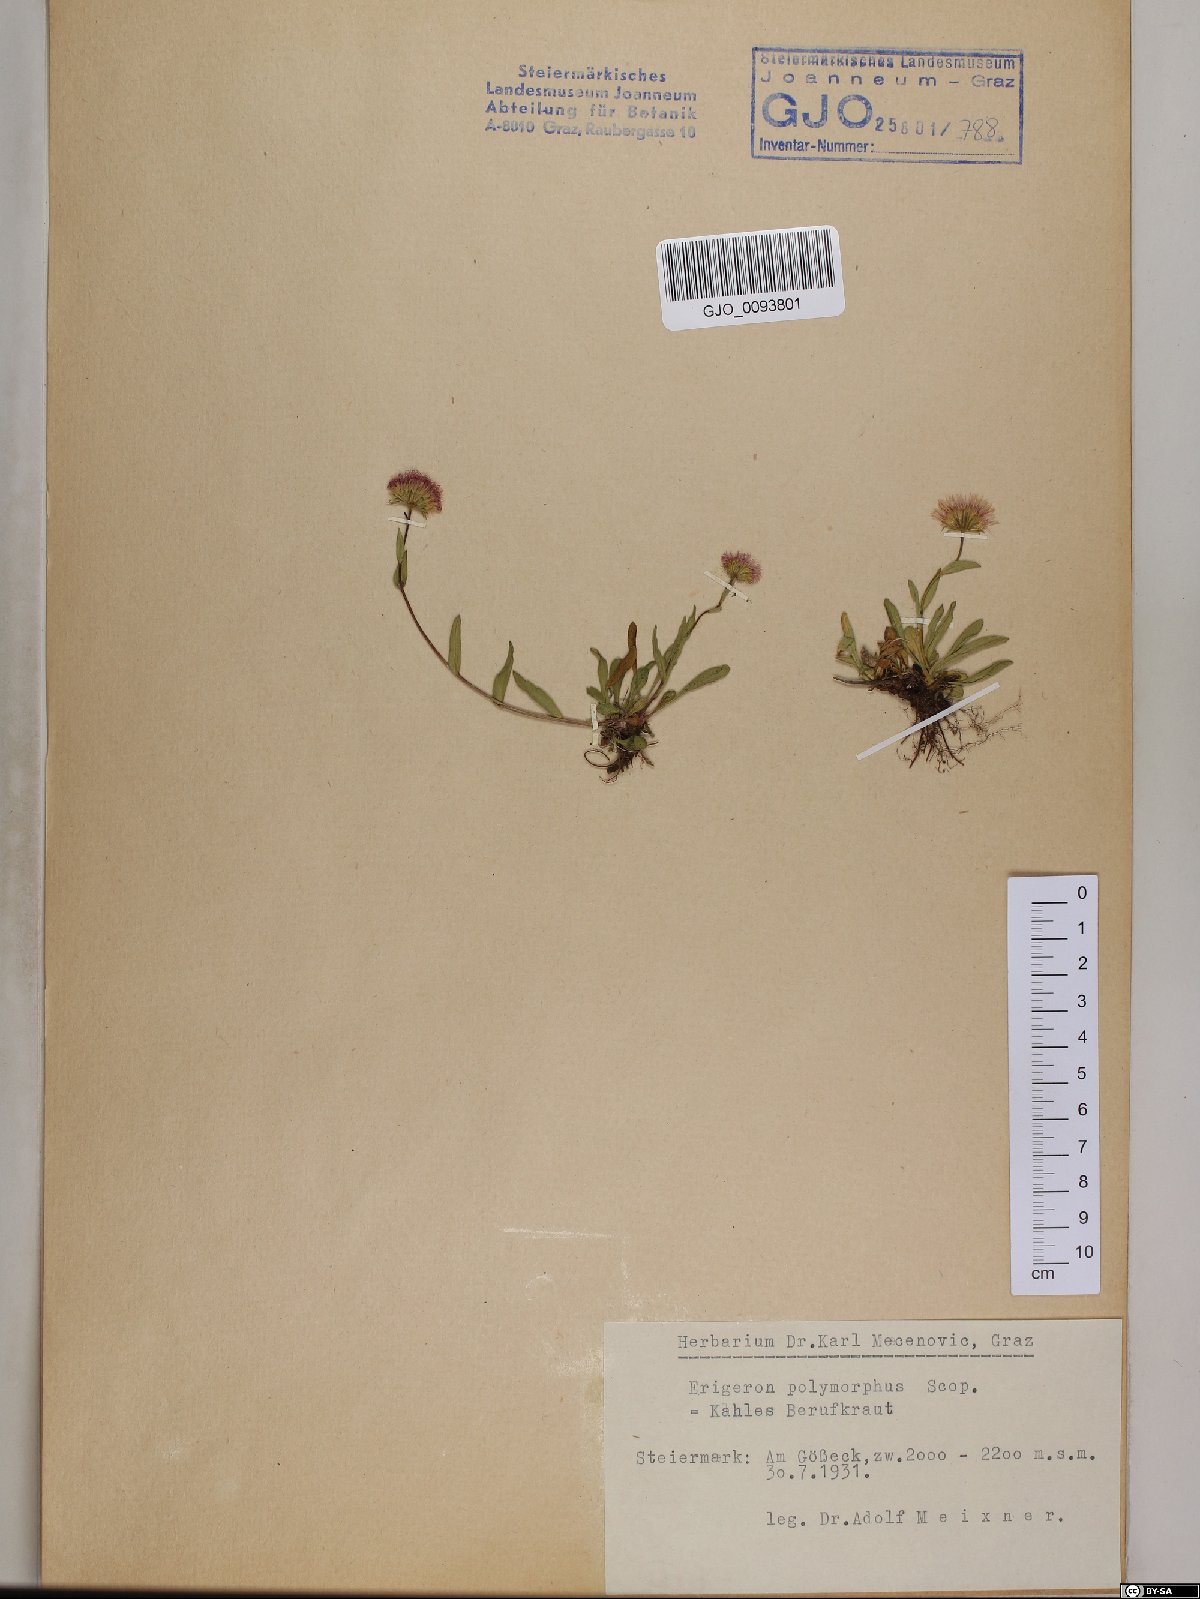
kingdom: Plantae
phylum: Tracheophyta
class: Magnoliopsida
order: Asterales
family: Asteraceae
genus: Erigeron
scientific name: Erigeron alpinus
